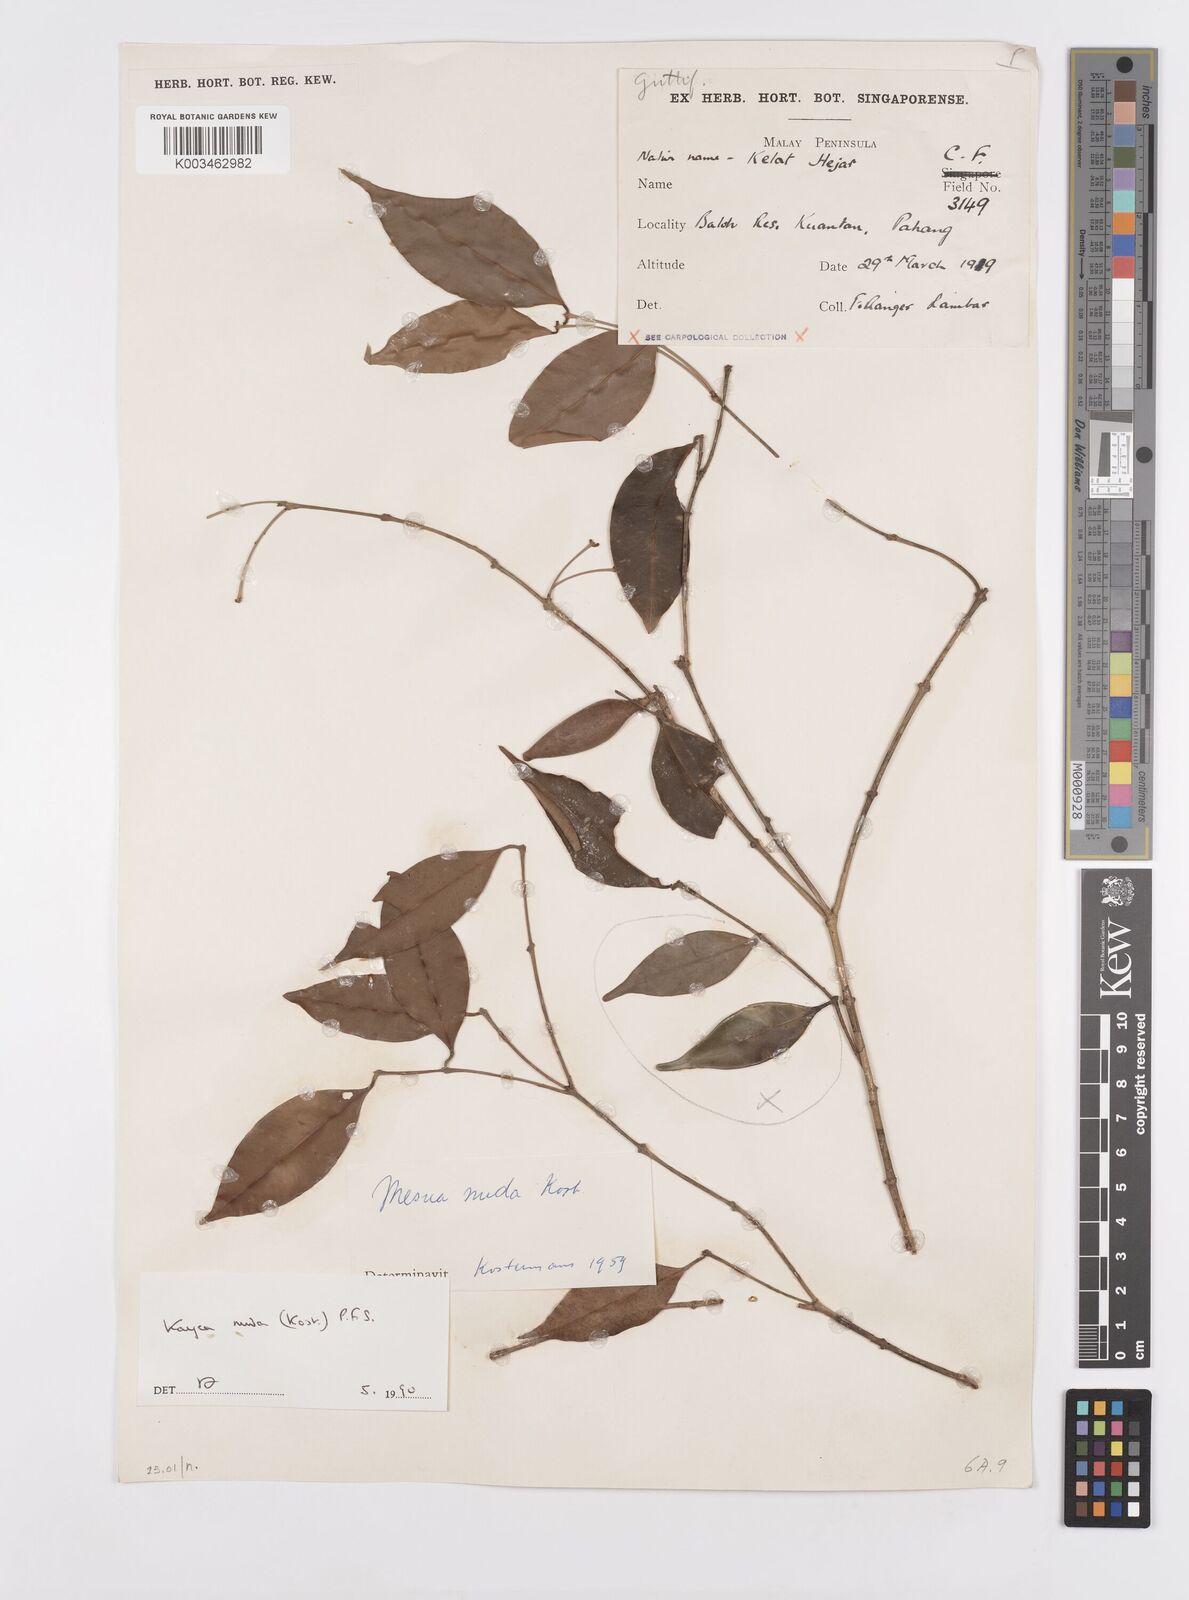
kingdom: Plantae
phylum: Tracheophyta
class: Magnoliopsida
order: Malpighiales
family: Calophyllaceae
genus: Kayea
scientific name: Kayea
